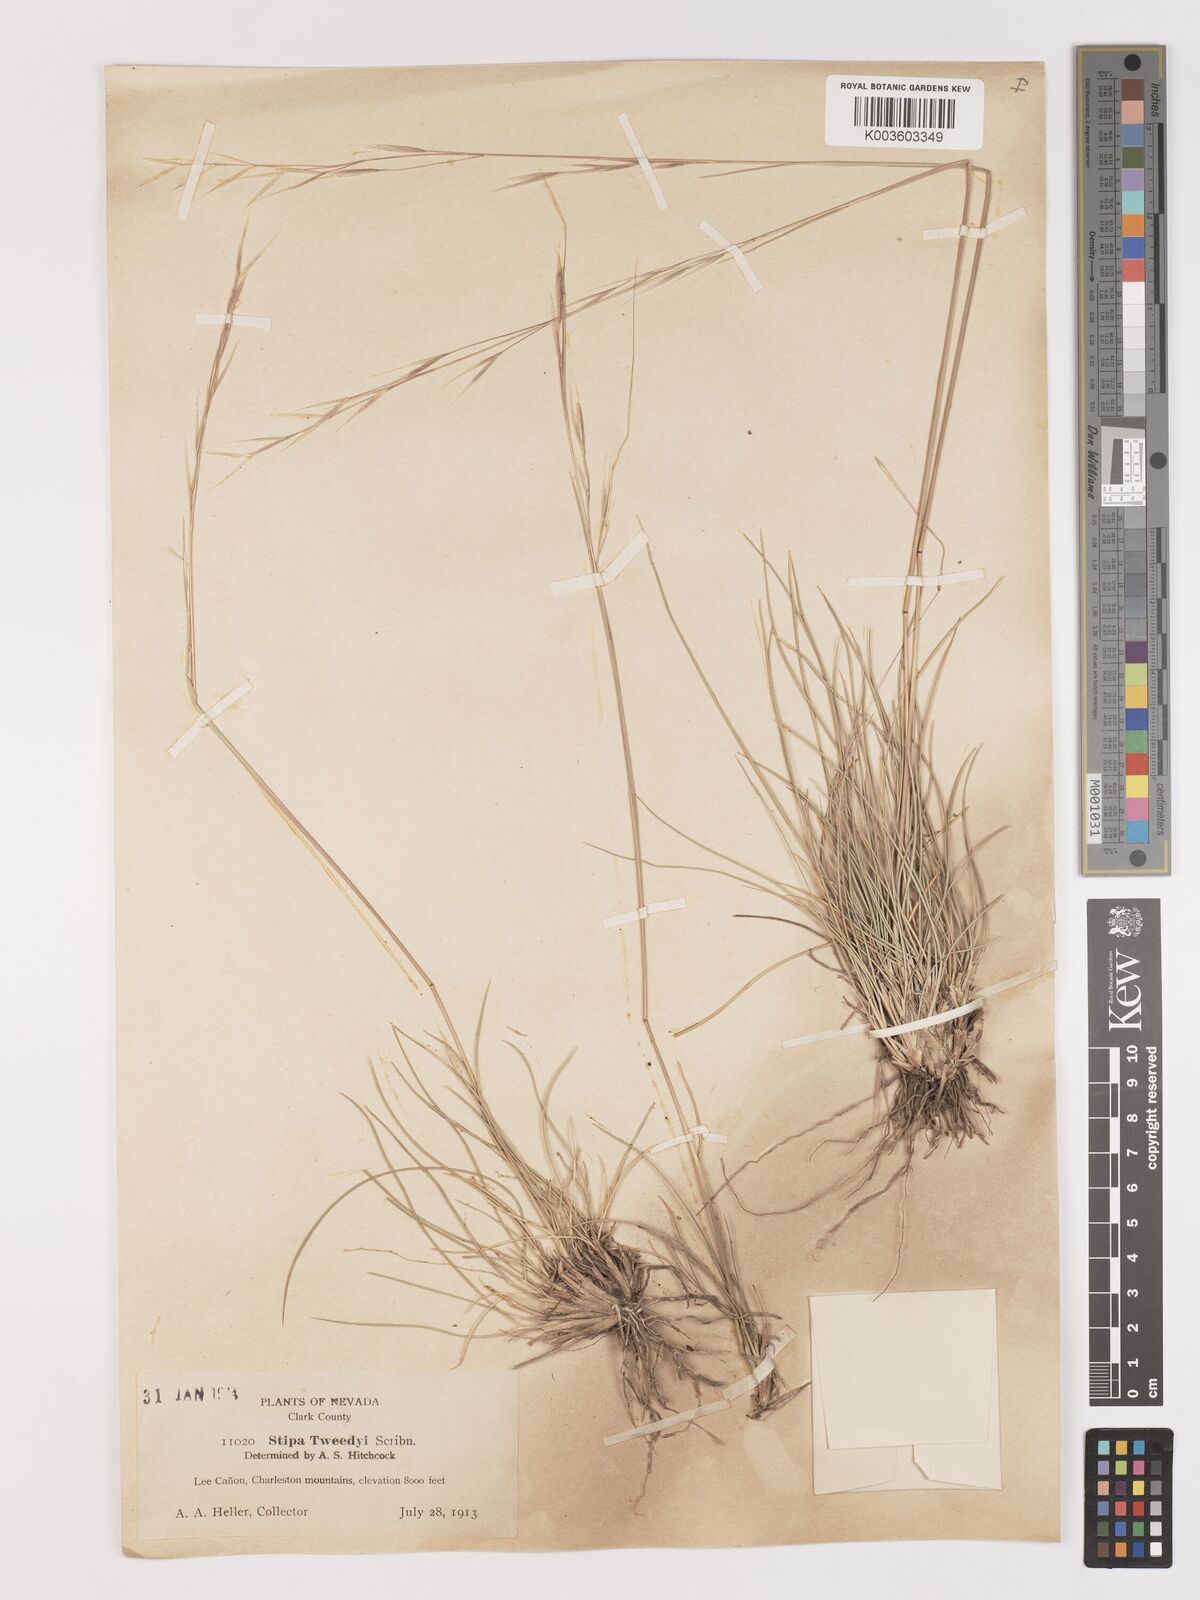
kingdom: Plantae
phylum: Tracheophyta
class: Liliopsida
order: Poales
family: Poaceae
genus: Hesperostipa
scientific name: Hesperostipa comata
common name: Needle-and-thread grass
